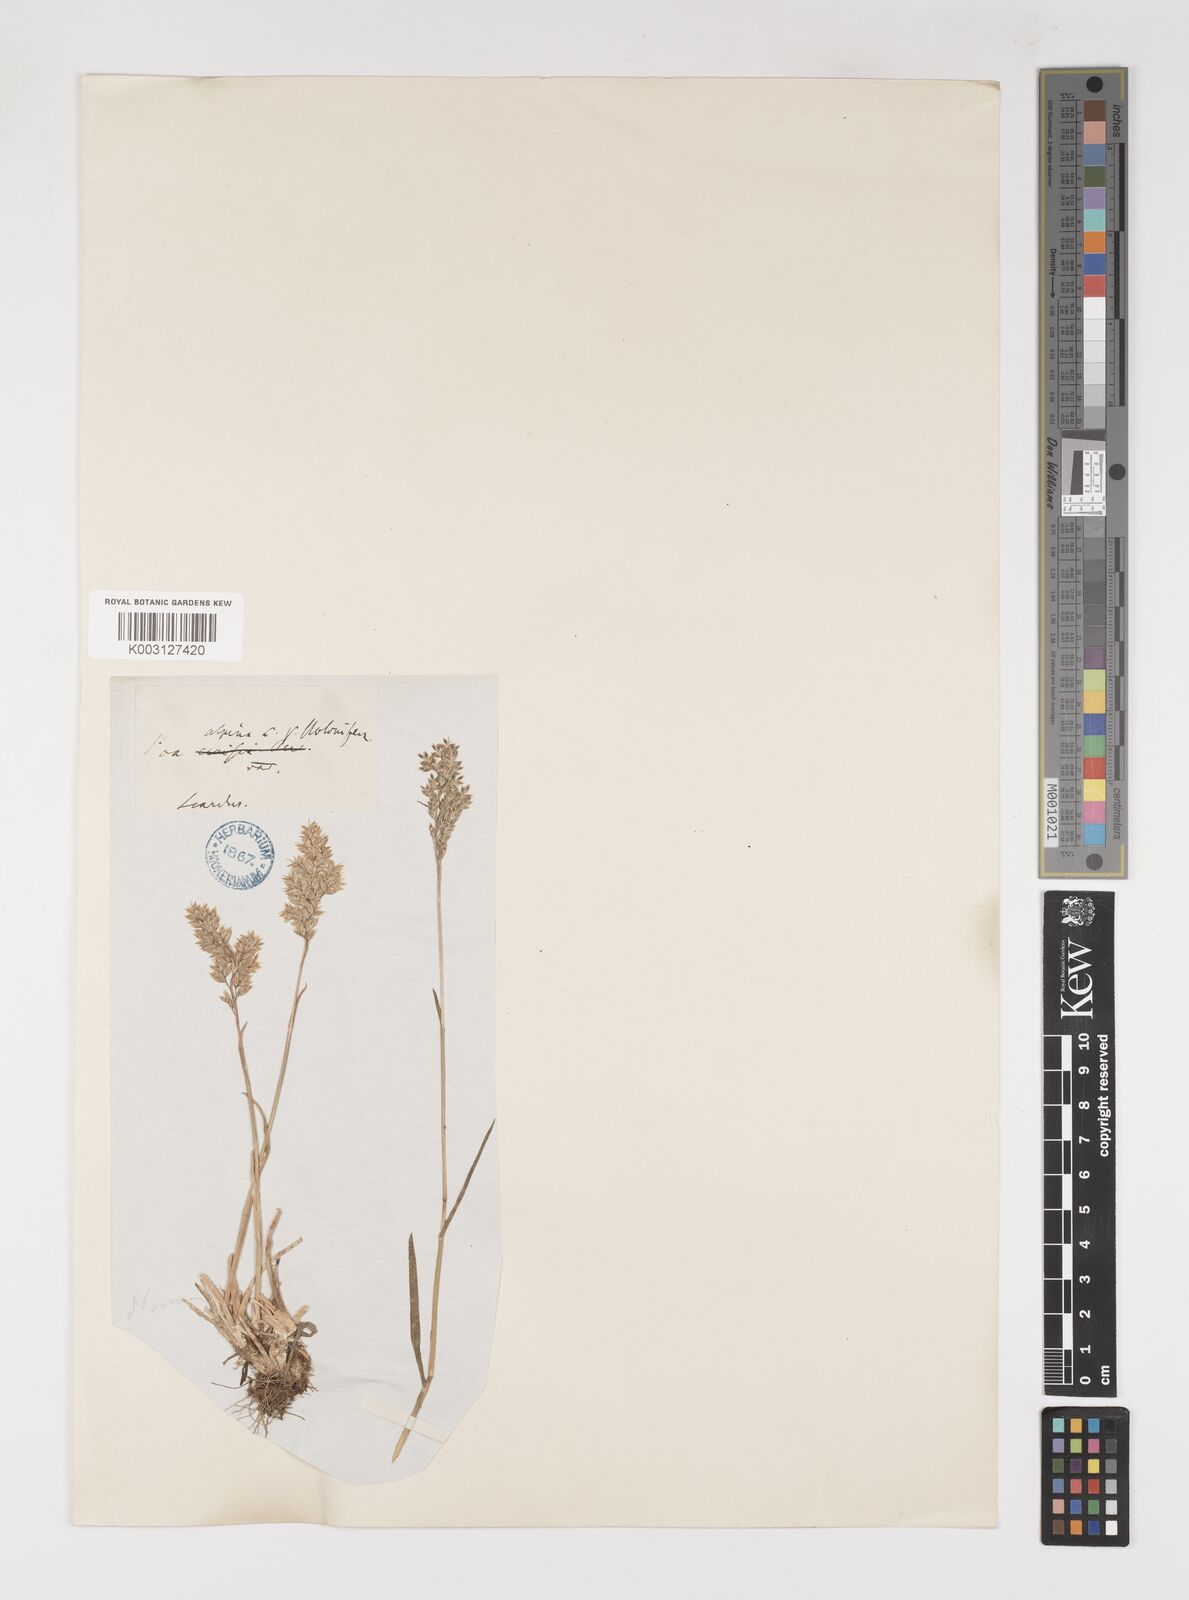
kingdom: Plantae
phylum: Tracheophyta
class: Liliopsida
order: Poales
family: Poaceae
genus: Poa
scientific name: Poa alpina
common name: Alpine bluegrass
